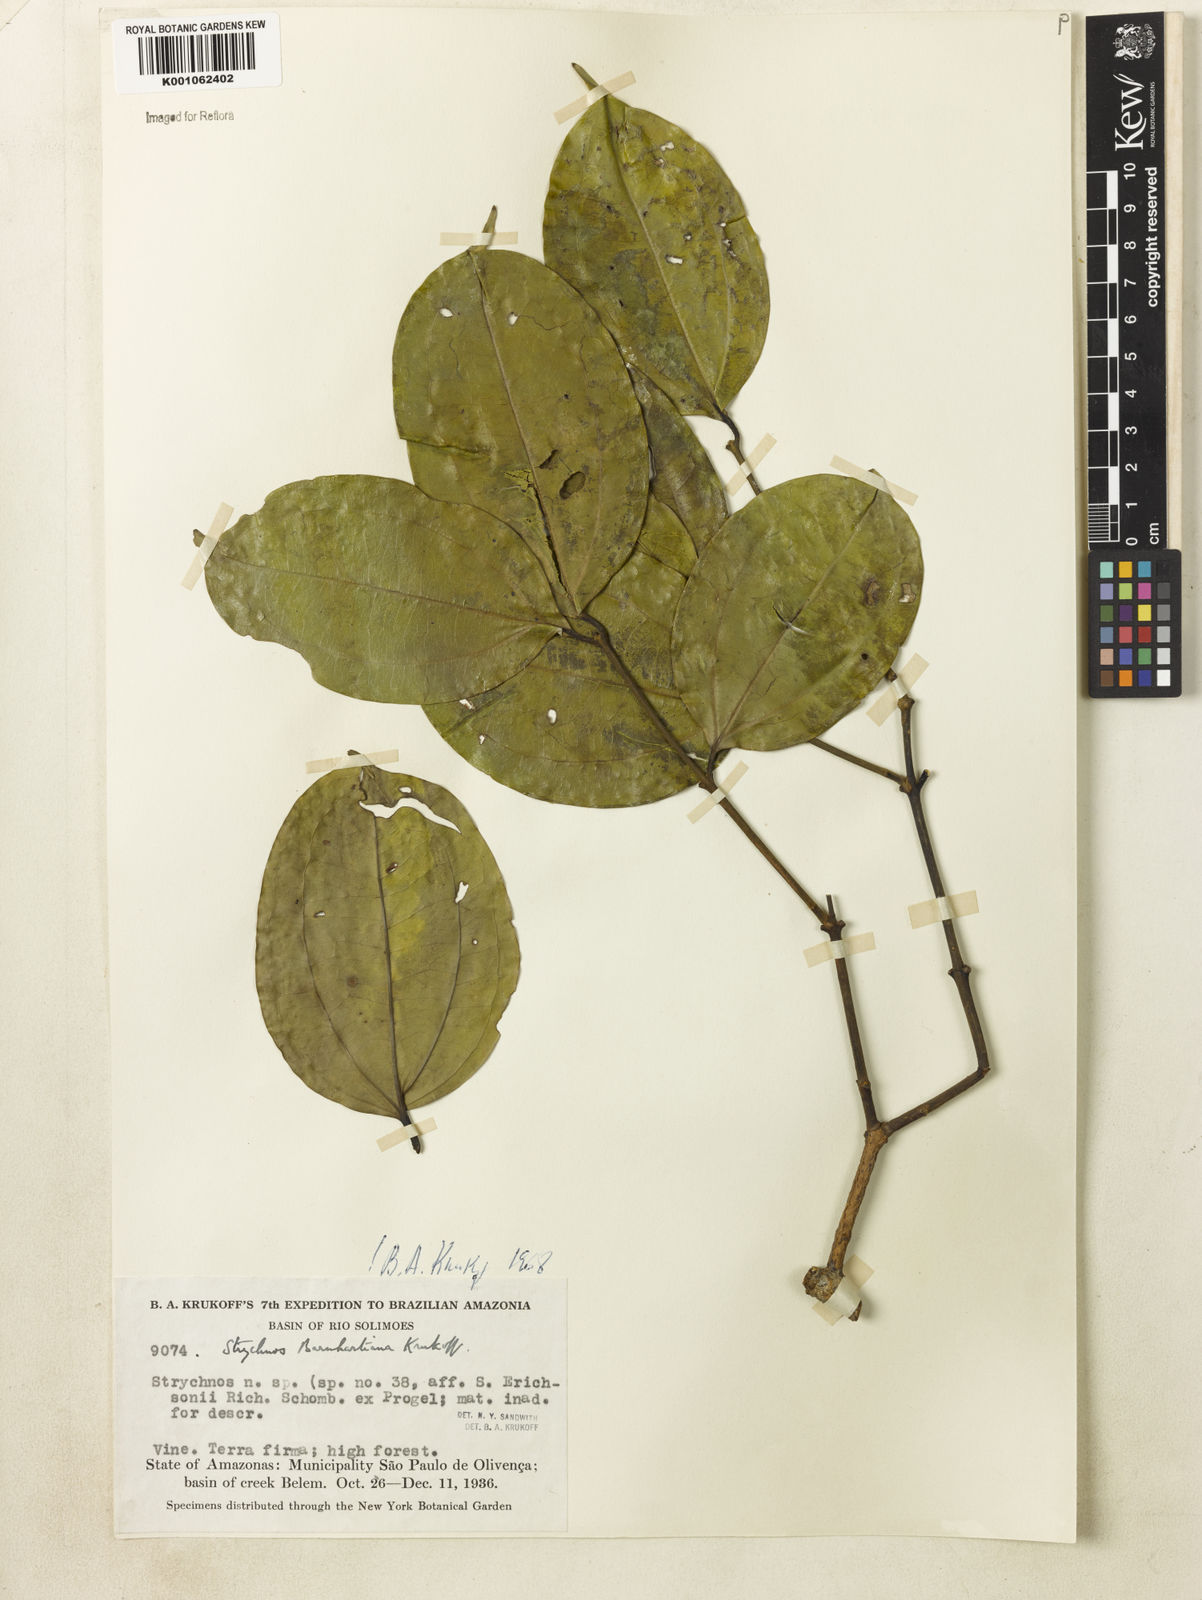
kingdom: Plantae
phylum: Tracheophyta
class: Magnoliopsida
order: Gentianales
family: Loganiaceae
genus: Strychnos
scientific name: Strychnos barnhartiana
